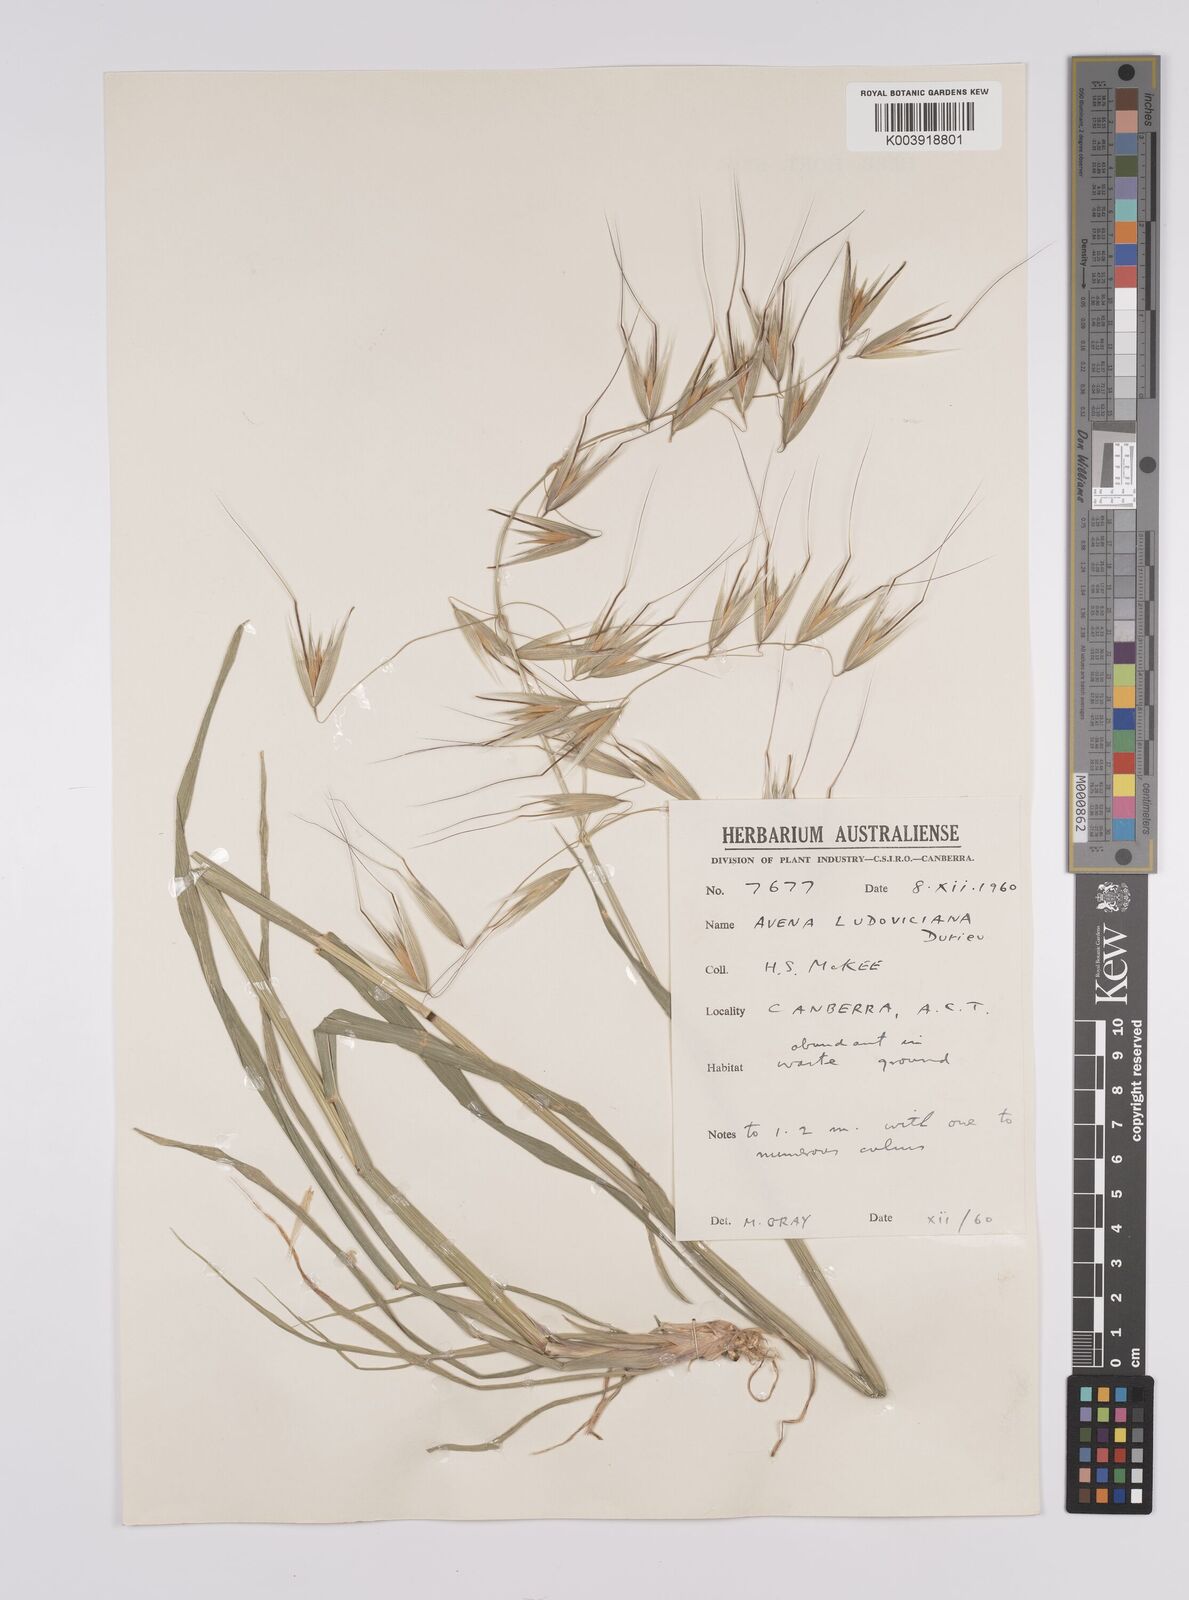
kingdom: Plantae
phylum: Tracheophyta
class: Liliopsida
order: Poales
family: Poaceae
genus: Avena
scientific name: Avena sterilis
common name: Animated oat
